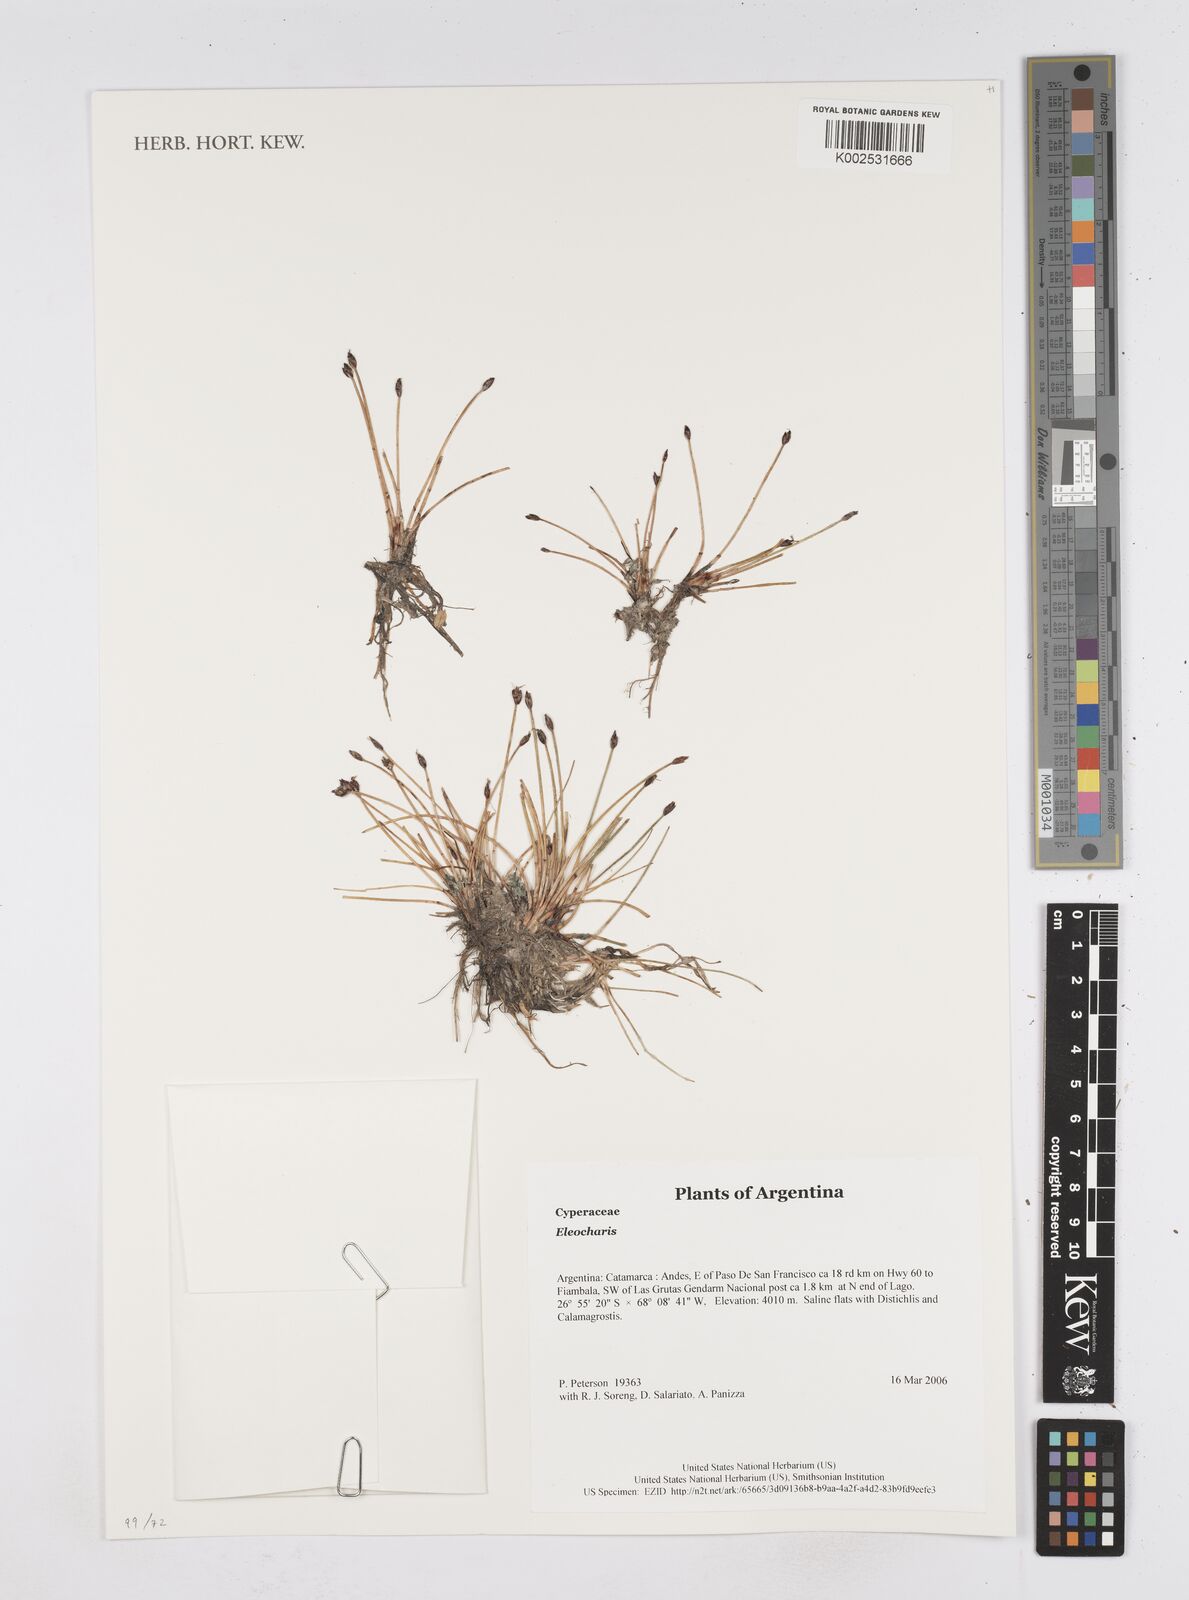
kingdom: Plantae
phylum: Tracheophyta
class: Liliopsida
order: Poales
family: Cyperaceae
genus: Eleocharis
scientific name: Eleocharis
